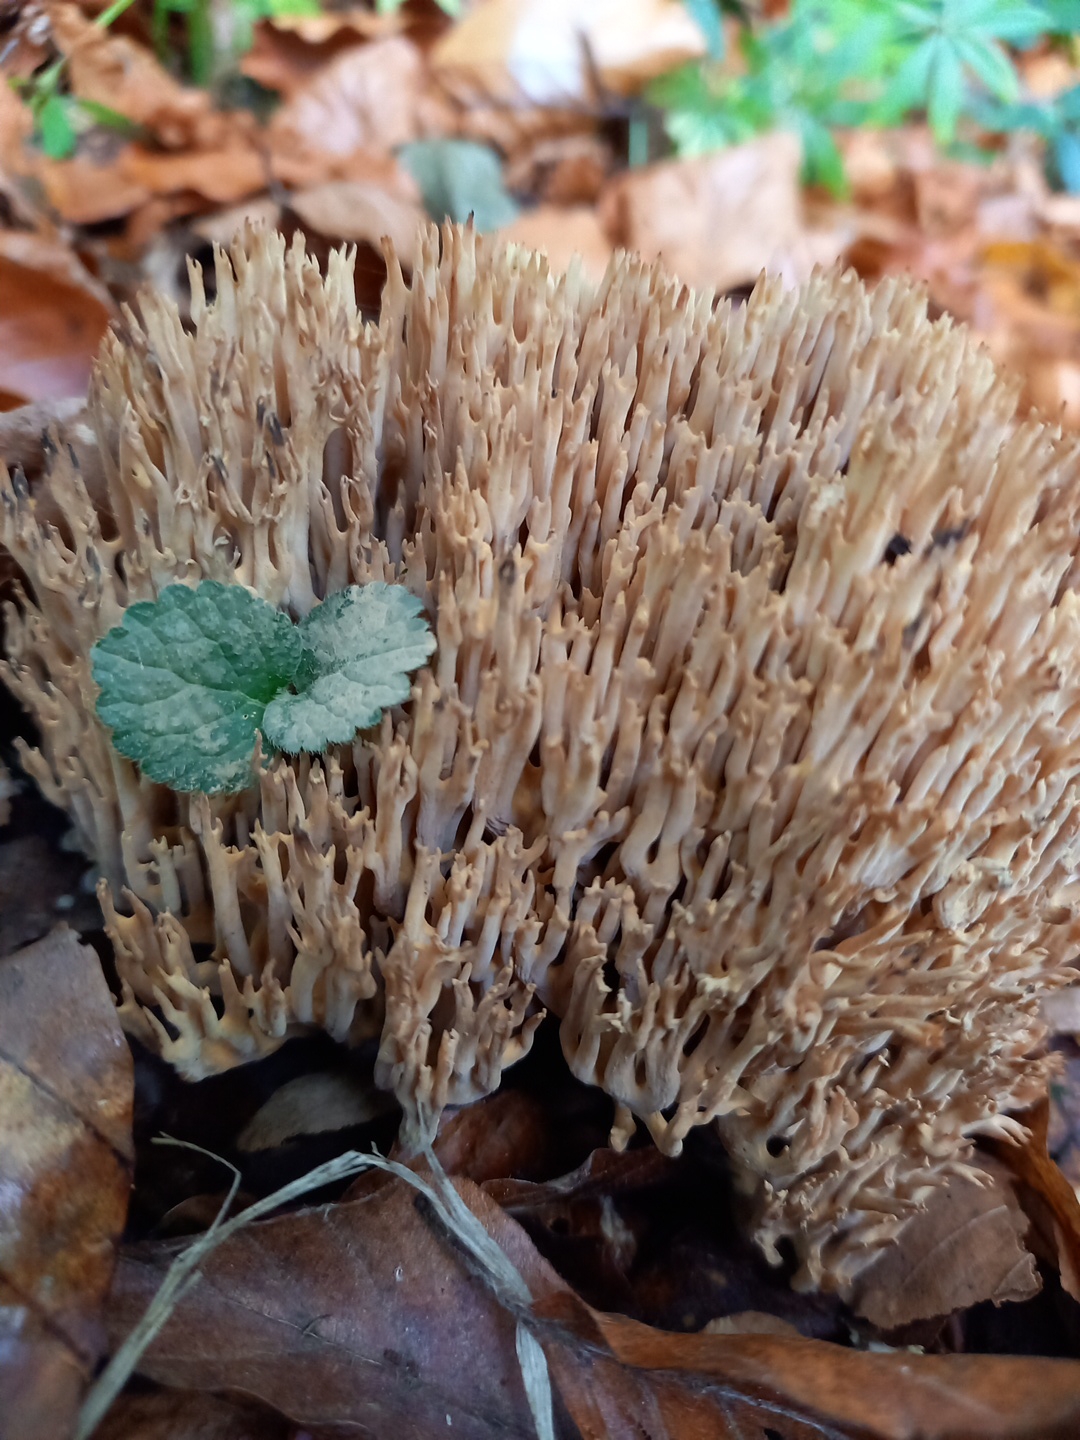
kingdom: Fungi
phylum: Basidiomycota
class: Agaricomycetes
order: Gomphales
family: Gomphaceae
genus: Ramaria
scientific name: Ramaria stricta
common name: rank koralsvamp
